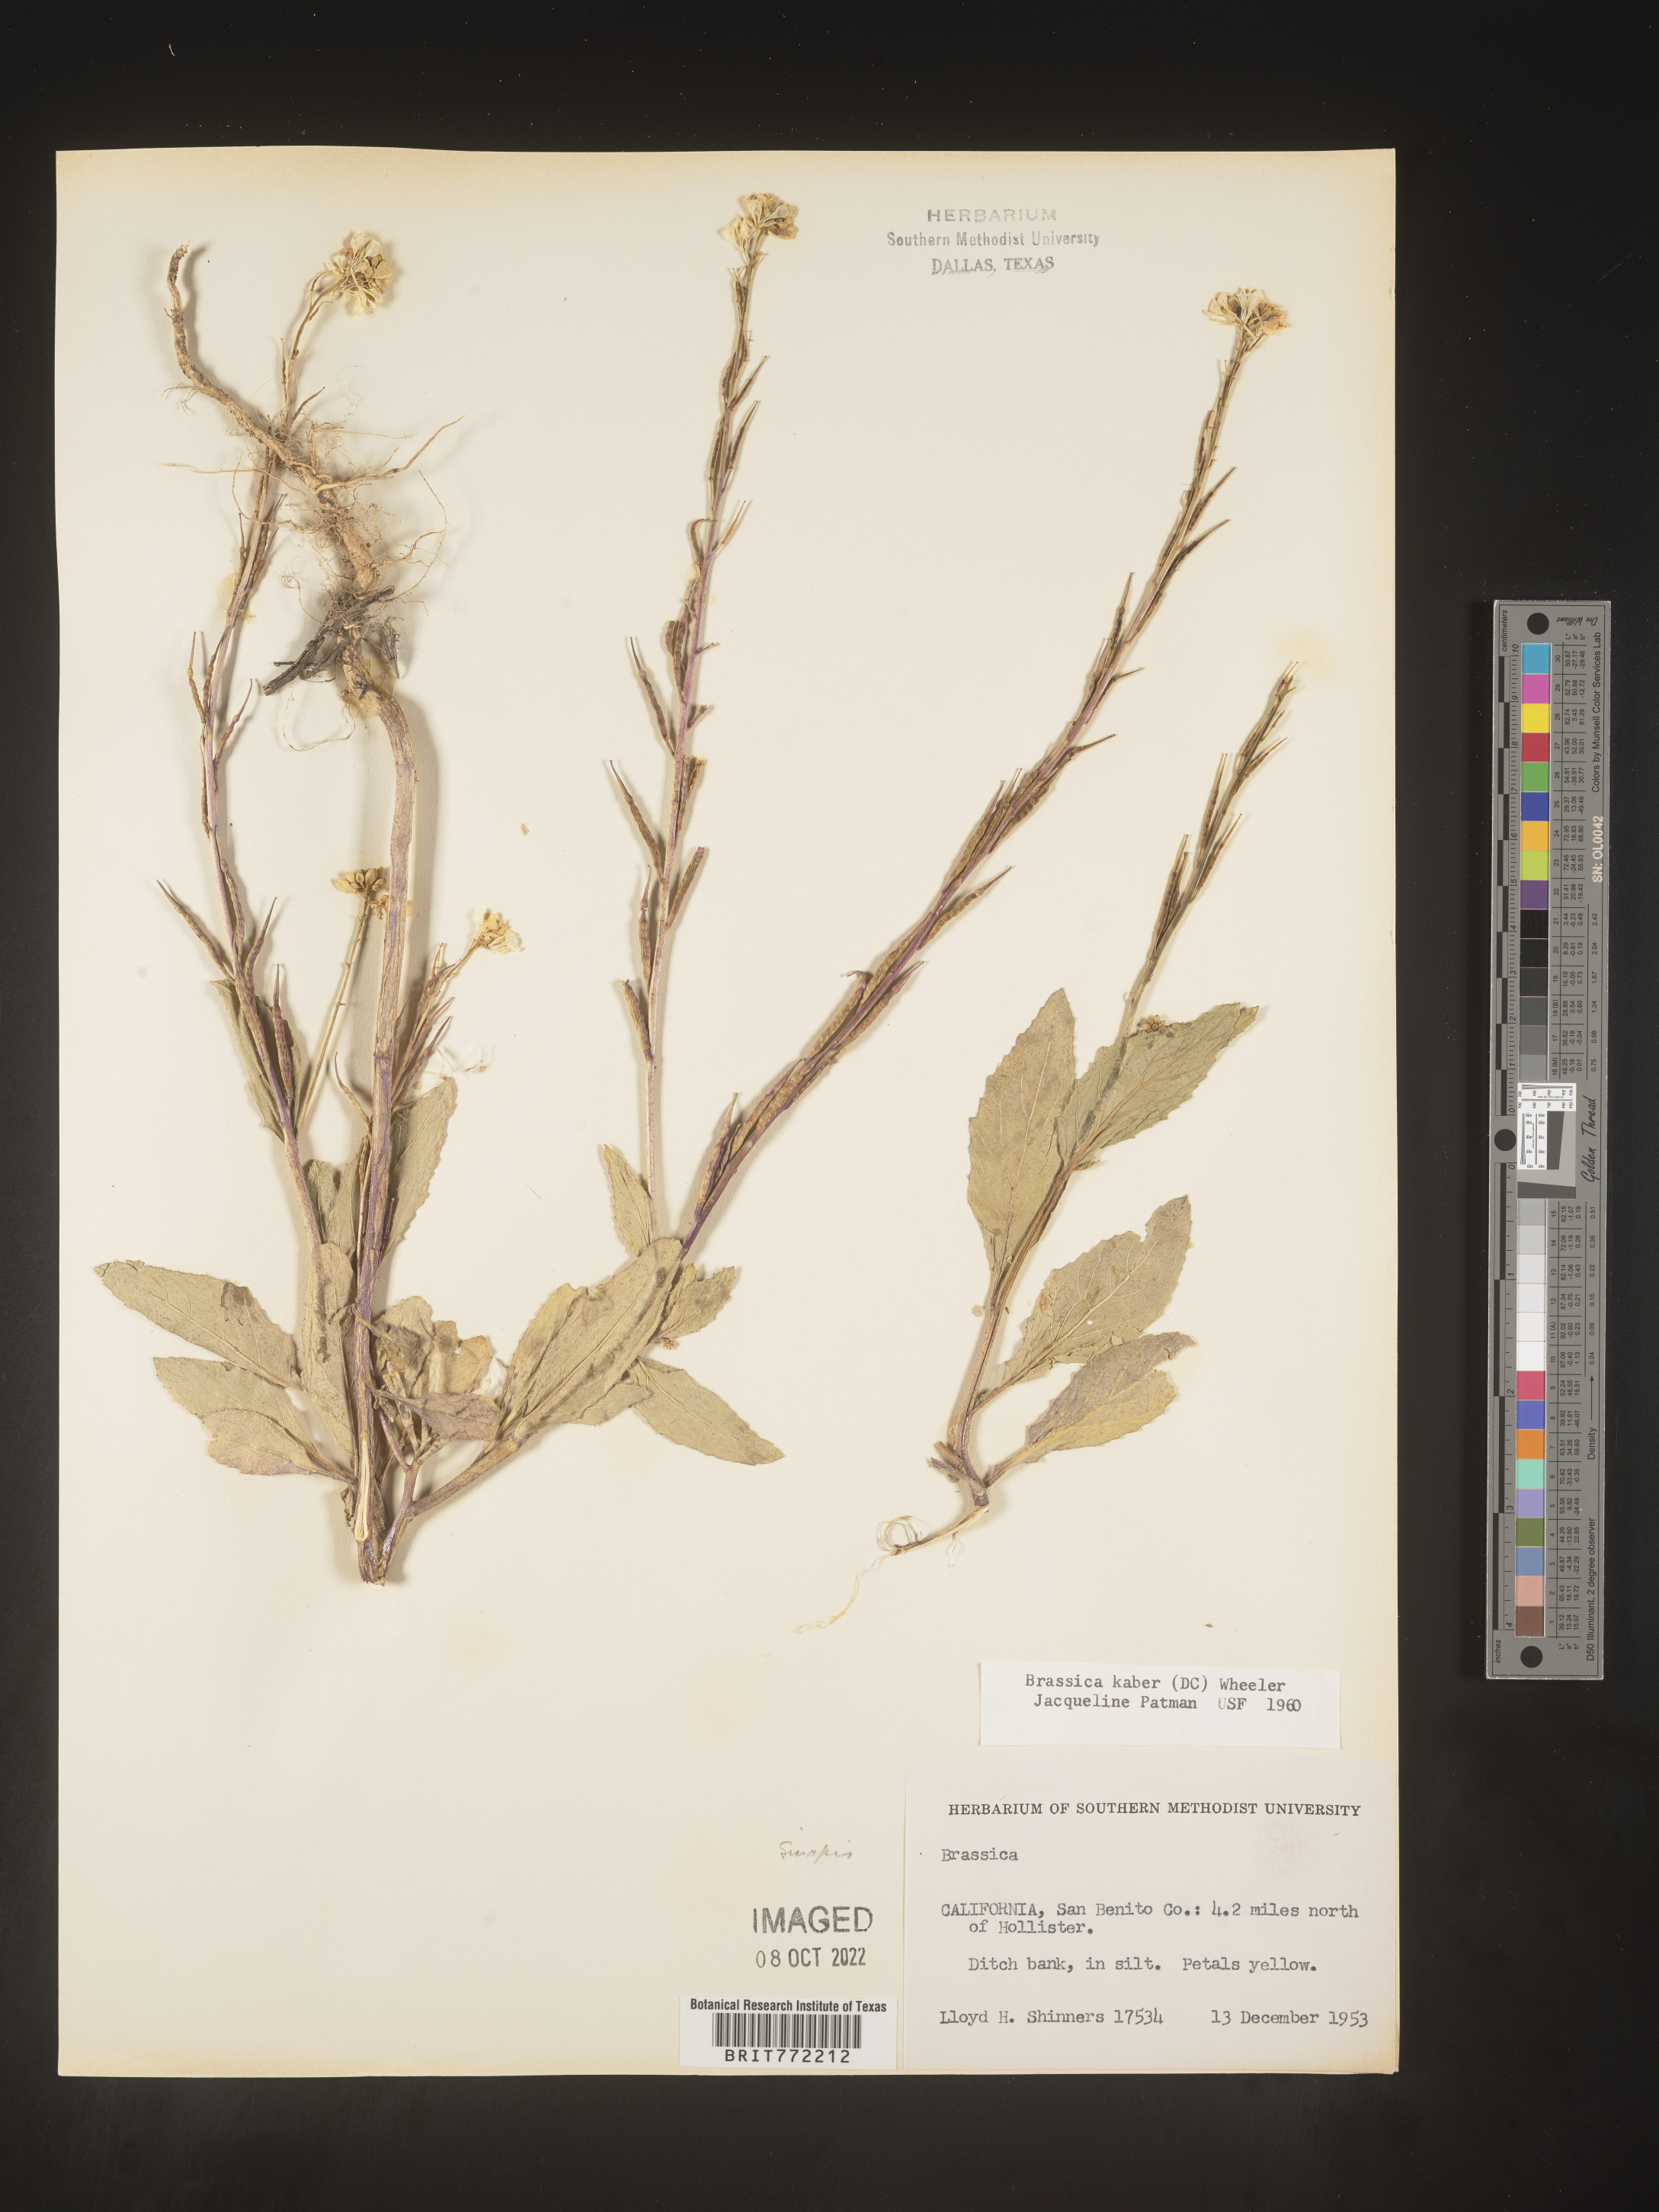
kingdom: Plantae
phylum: Tracheophyta
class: Magnoliopsida
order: Brassicales
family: Brassicaceae
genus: Sinapis
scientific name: Sinapis arvensis
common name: Charlock
